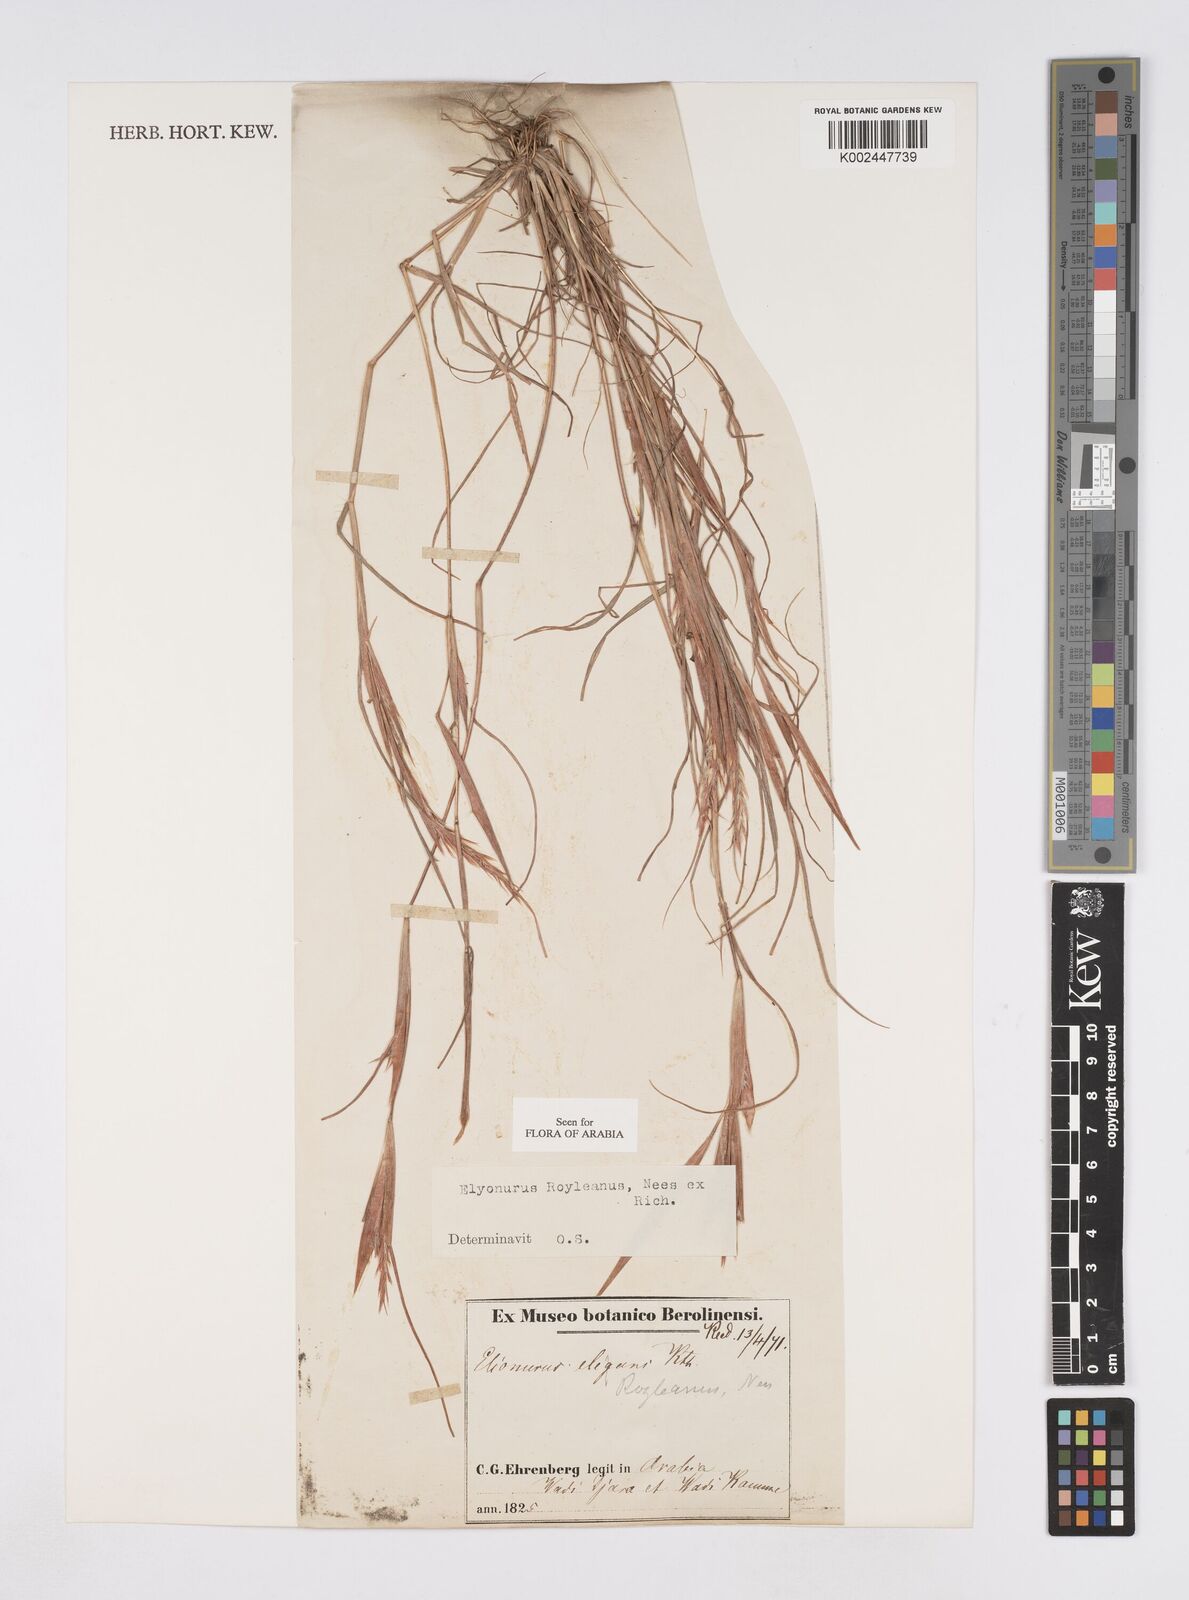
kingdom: Plantae
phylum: Tracheophyta
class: Liliopsida
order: Poales
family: Poaceae
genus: Elionurus
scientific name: Elionurus royleanus
